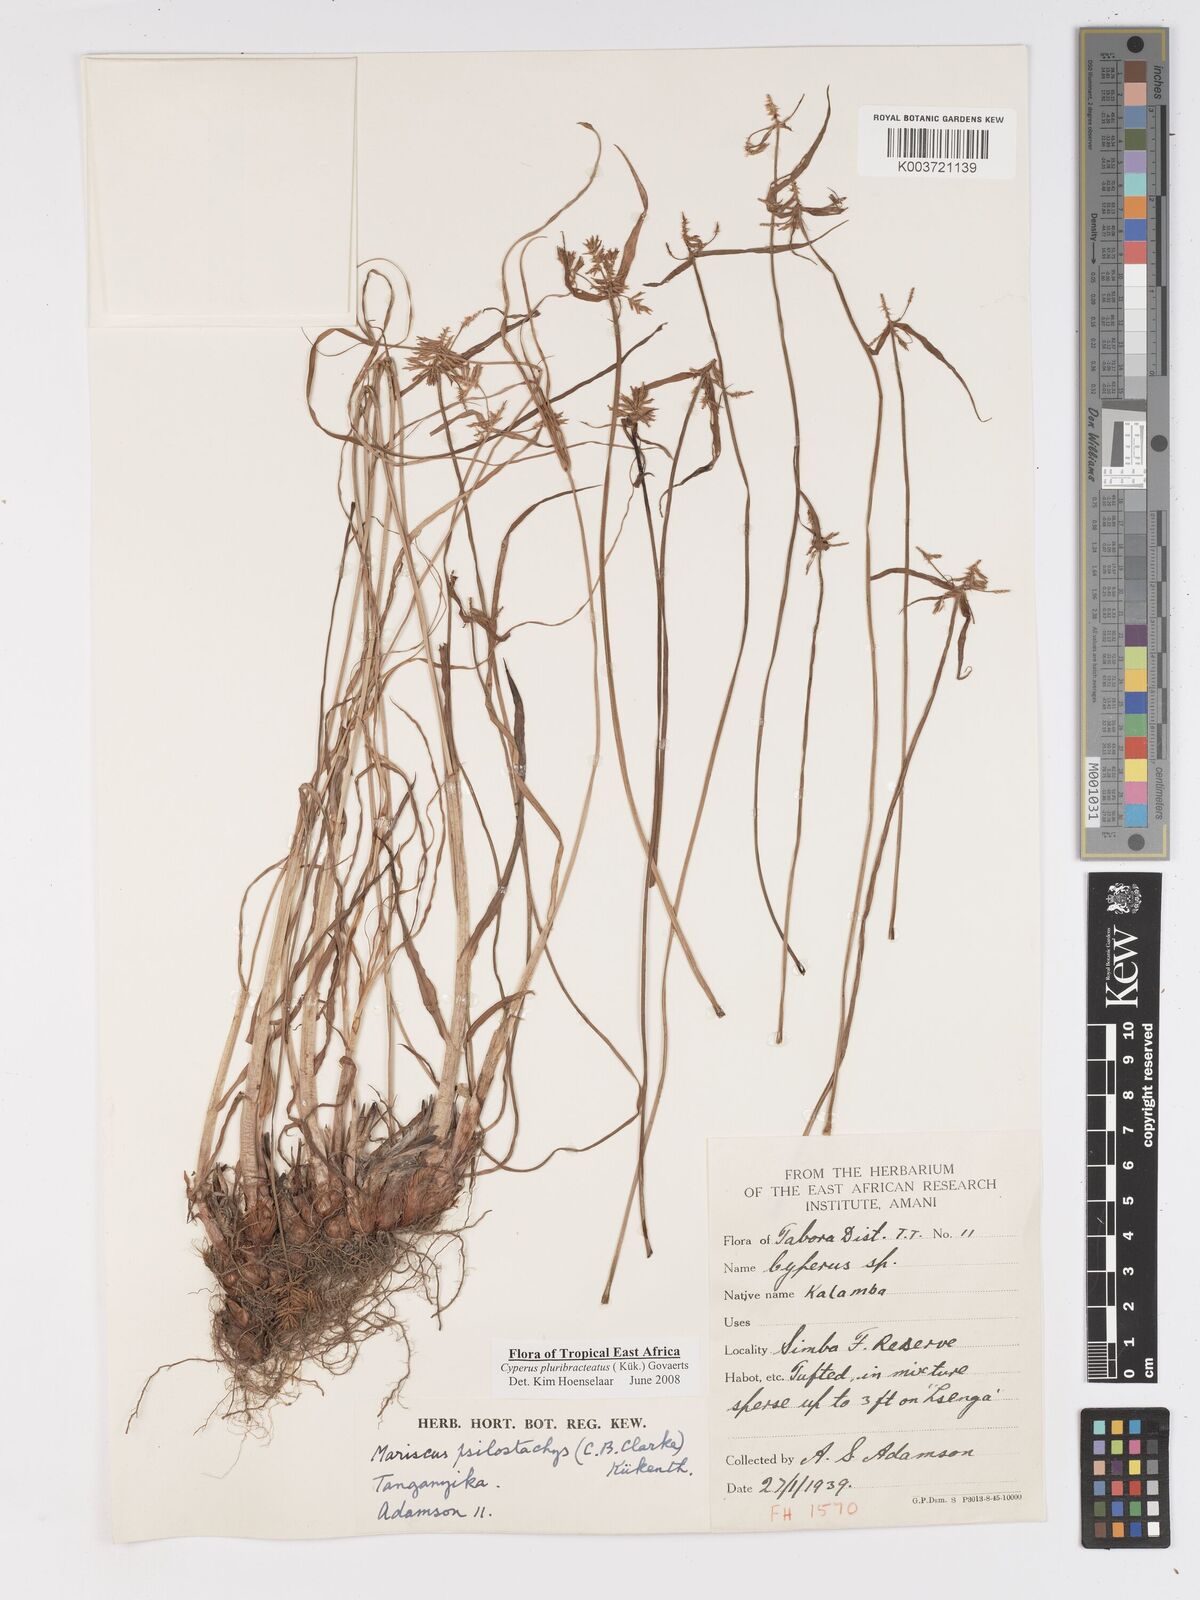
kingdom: Plantae
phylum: Tracheophyta
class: Liliopsida
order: Poales
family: Cyperaceae
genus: Cyperus
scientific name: Cyperus trigonellus
